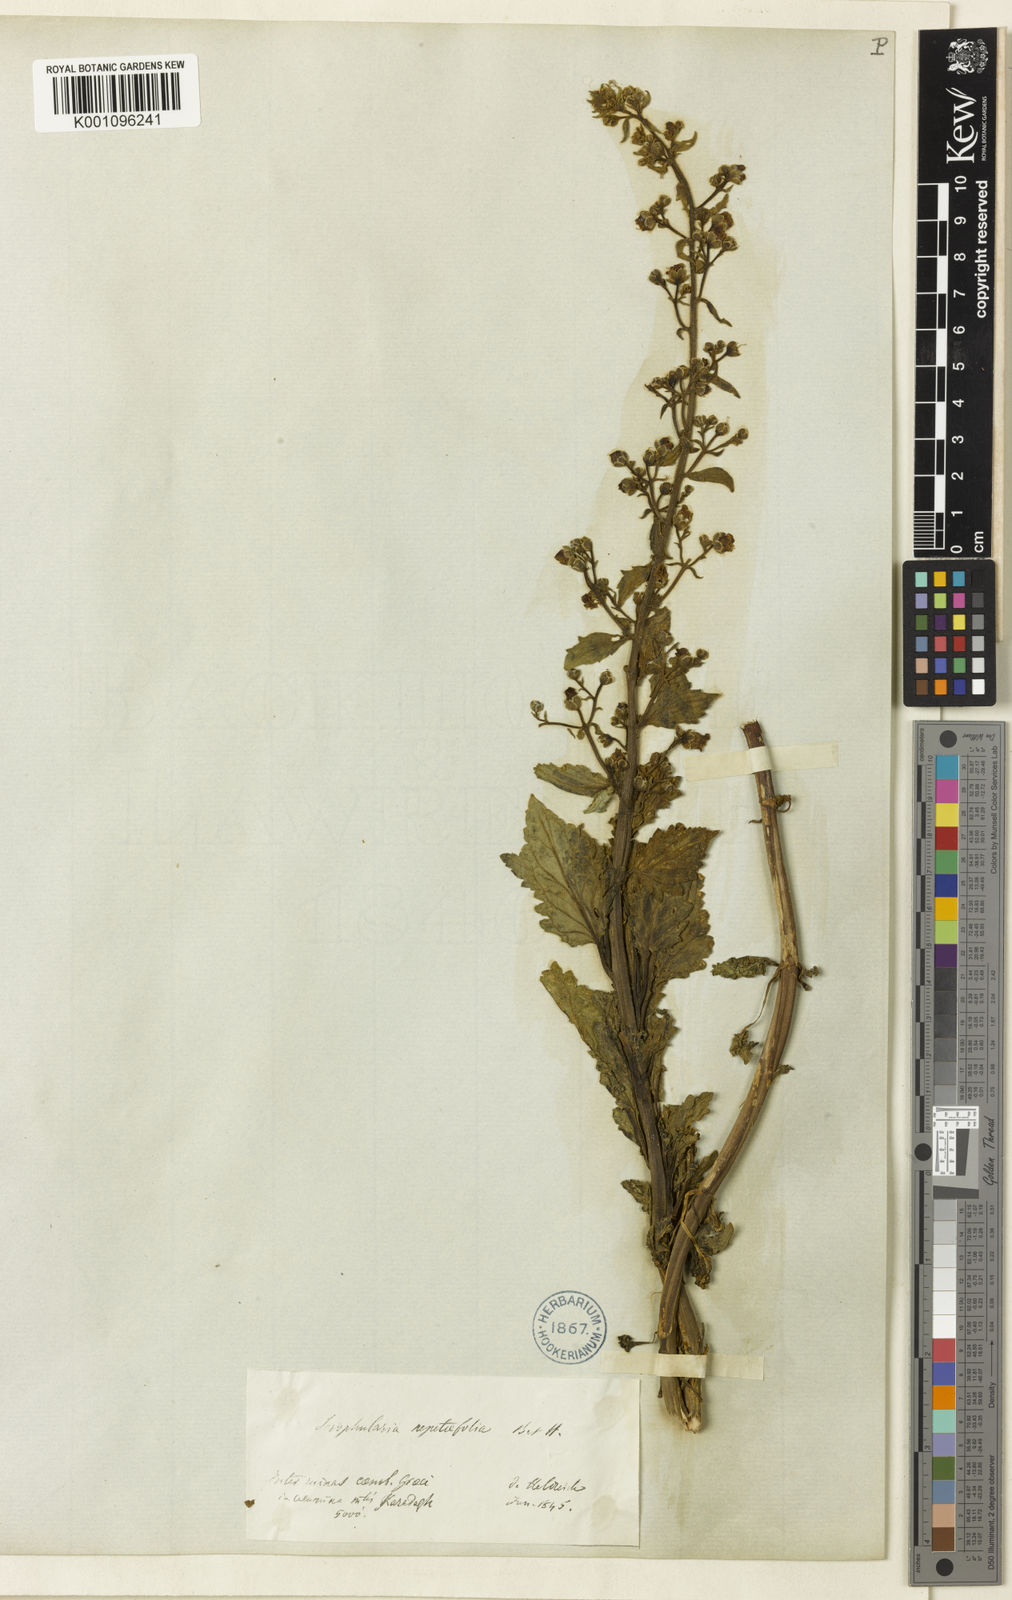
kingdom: Plantae
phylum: Tracheophyta
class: Magnoliopsida
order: Lamiales
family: Scrophulariaceae
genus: Scrophularia
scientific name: Scrophularia catariifolia
